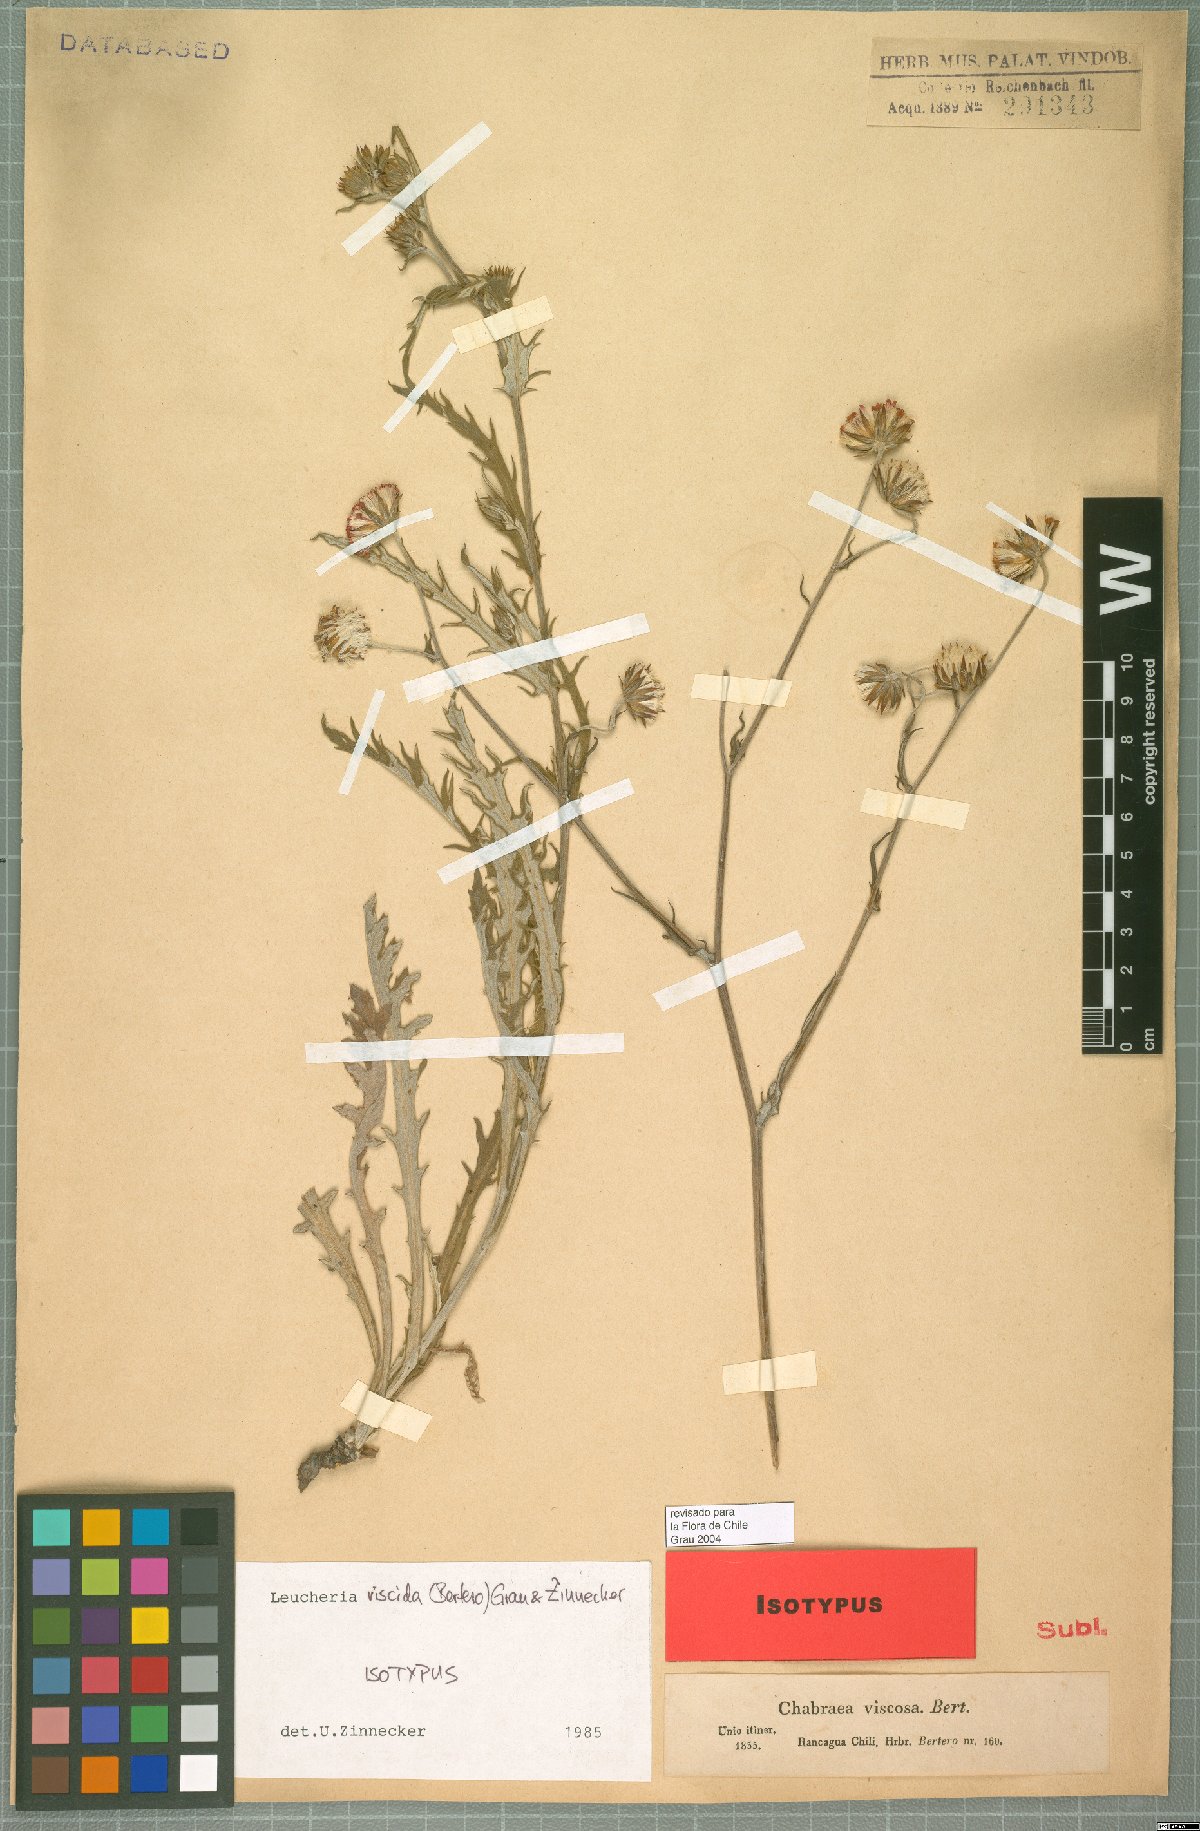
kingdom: Plantae
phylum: Tracheophyta
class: Magnoliopsida
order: Asterales
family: Asteraceae
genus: Leucheria
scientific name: Leucheria viscida
